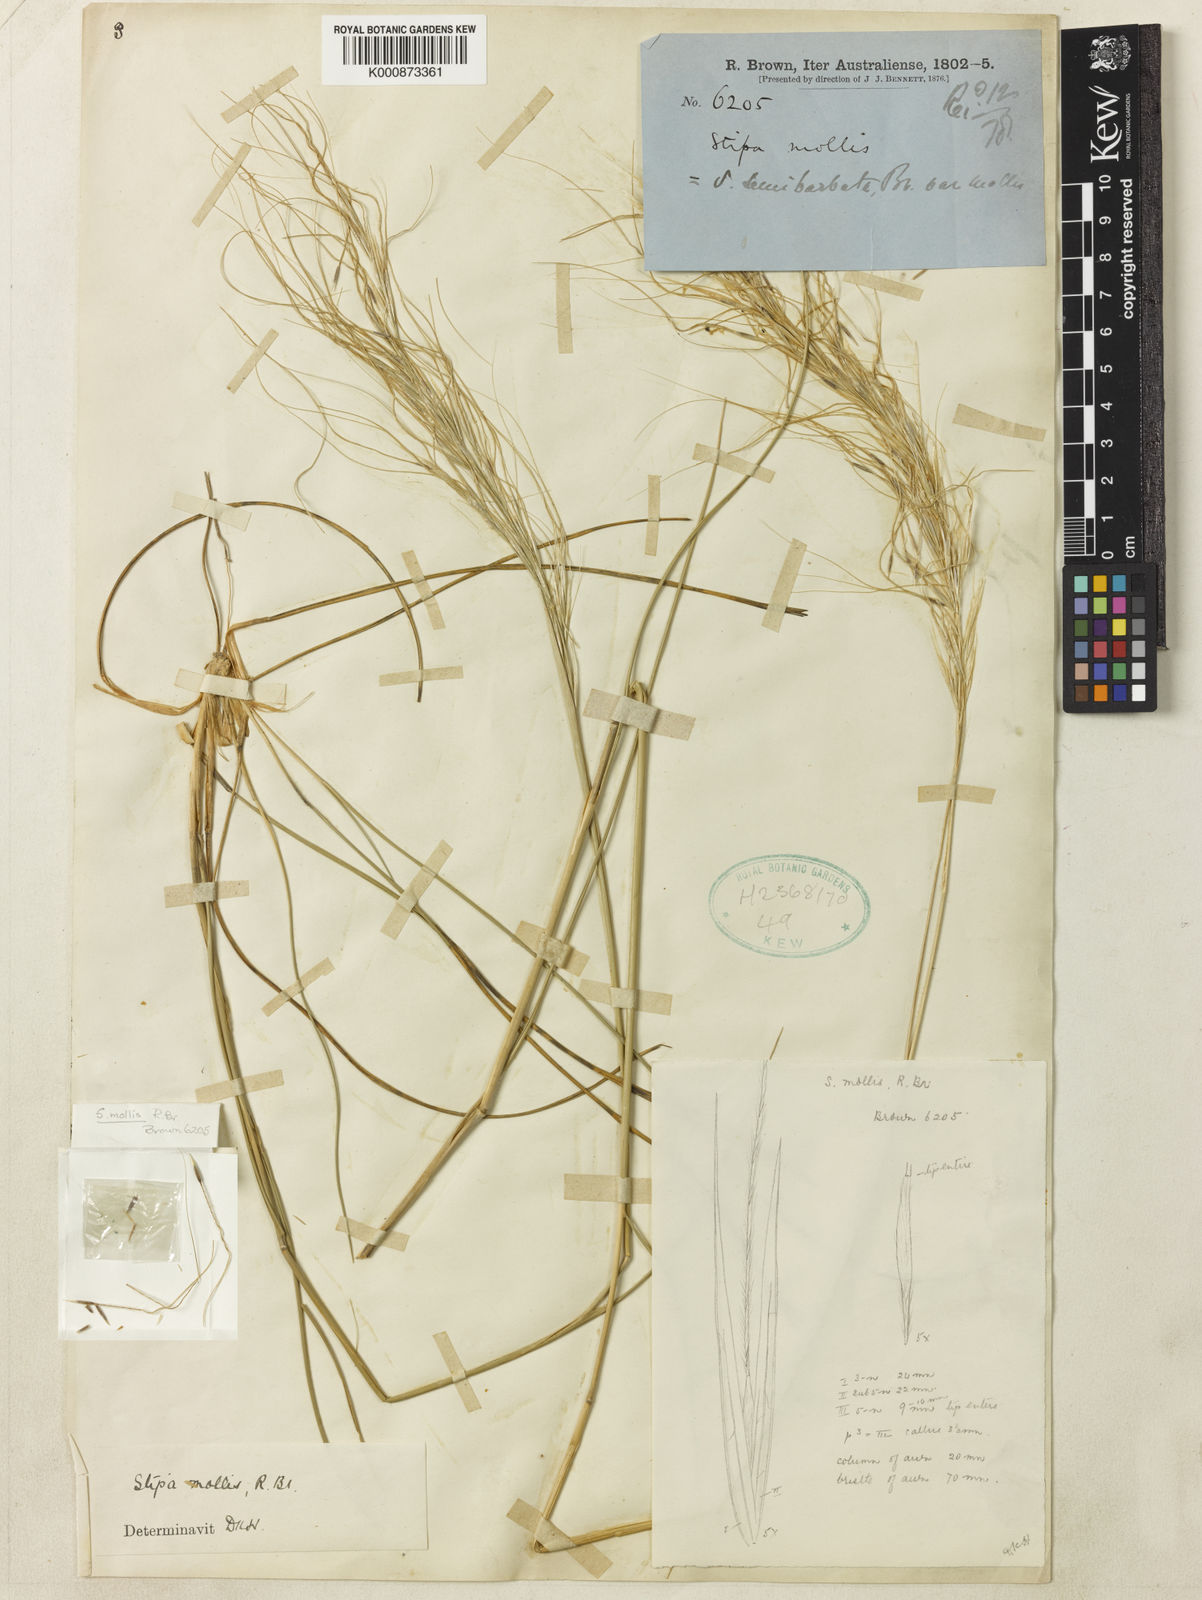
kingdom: Plantae
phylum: Tracheophyta
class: Liliopsida
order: Poales
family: Poaceae
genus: Austrostipa
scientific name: Austrostipa mollis
